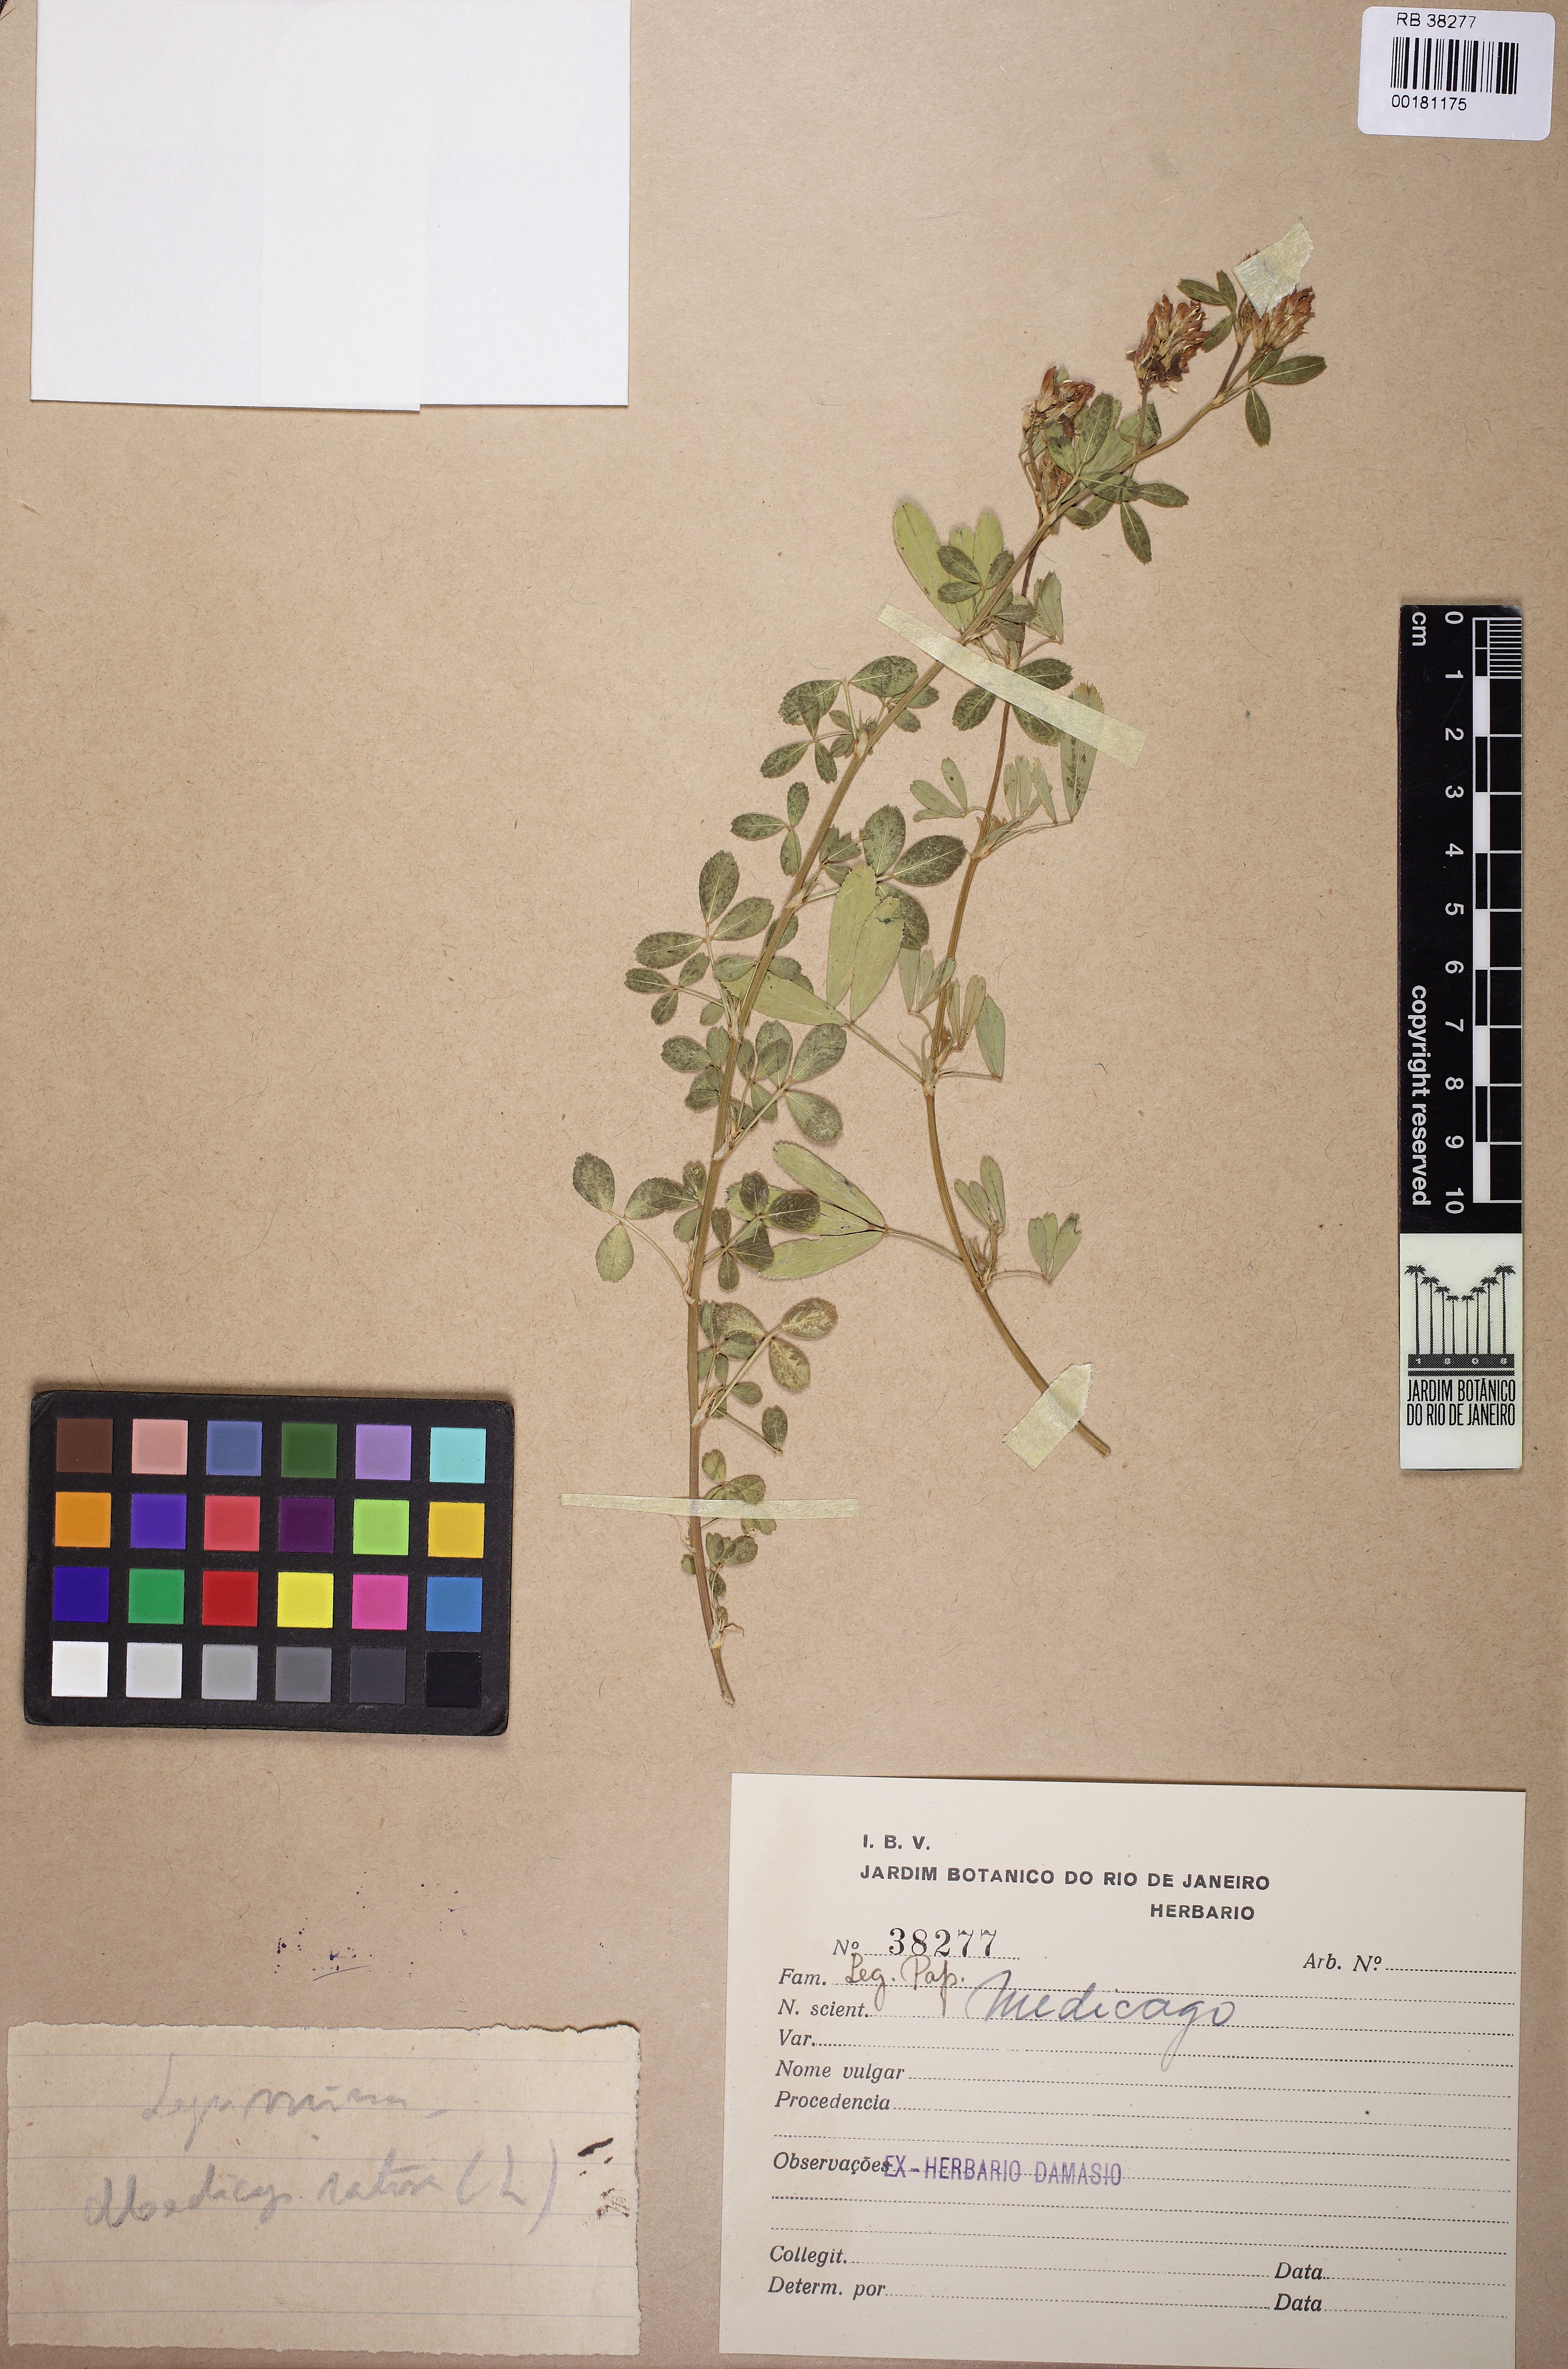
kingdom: Plantae
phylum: Tracheophyta
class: Magnoliopsida
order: Fabales
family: Fabaceae
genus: Medicago
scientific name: Medicago
